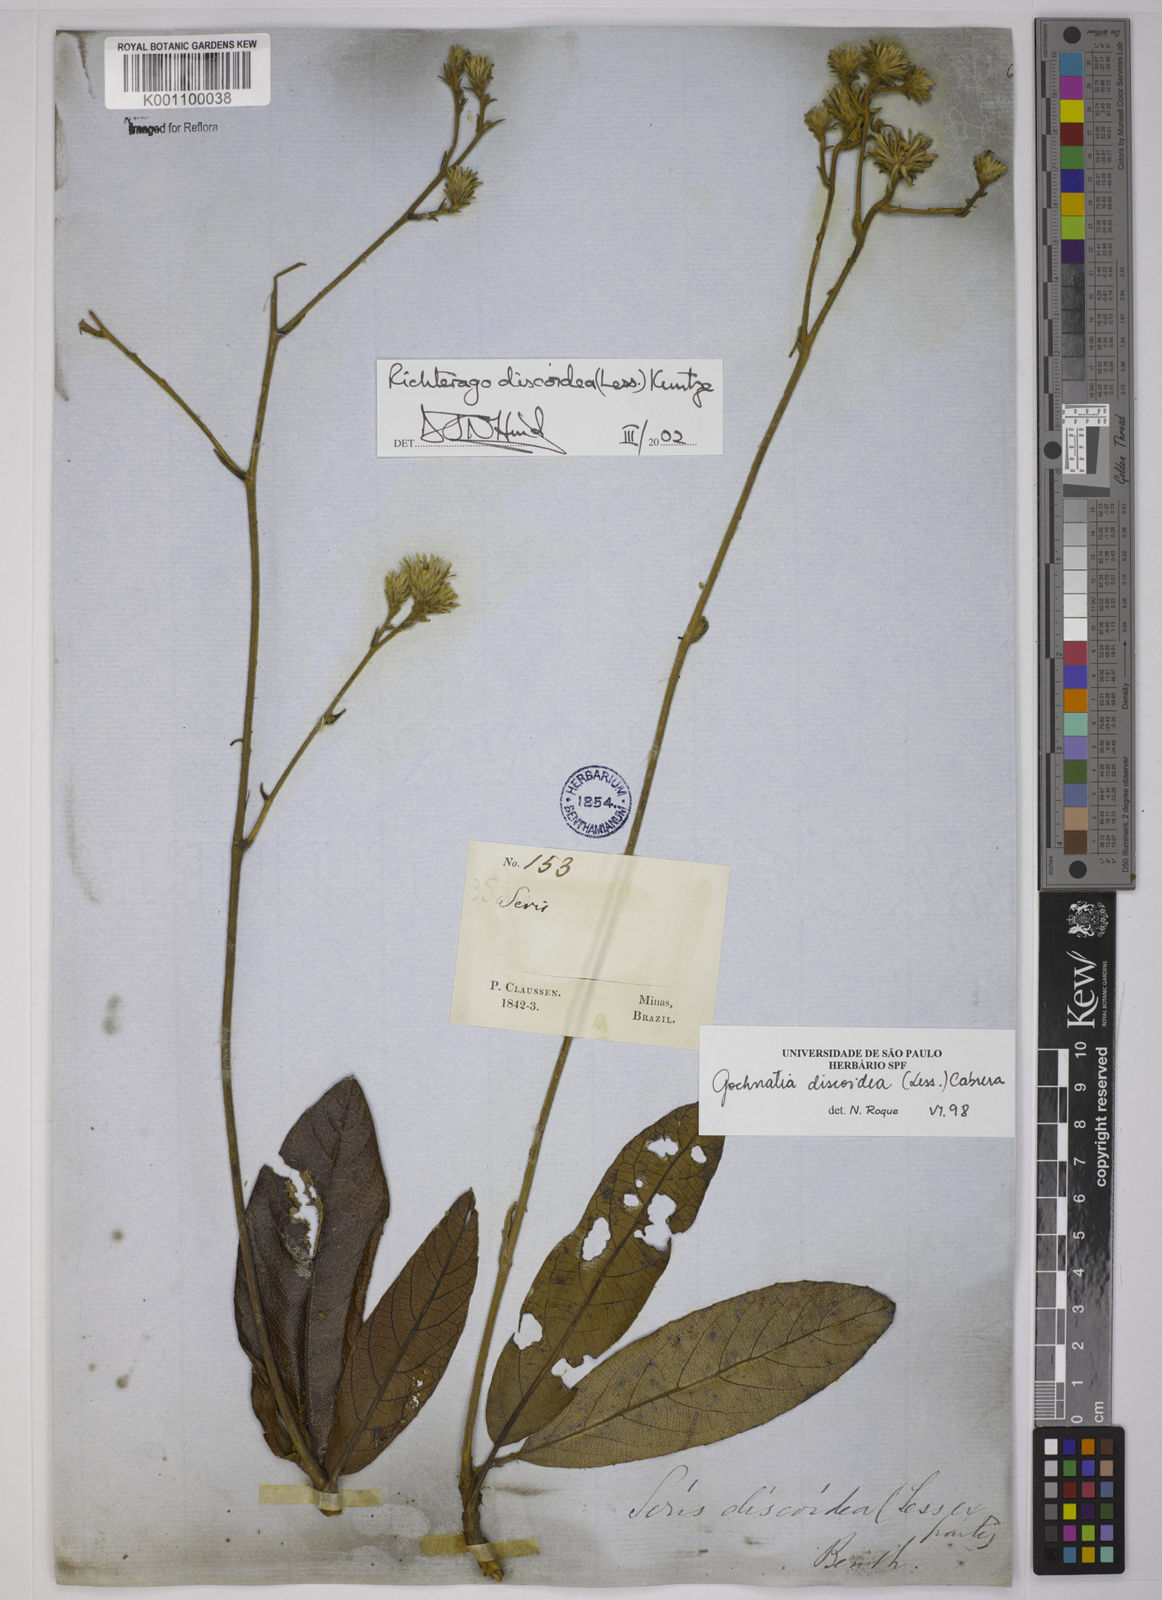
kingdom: Plantae
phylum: Tracheophyta
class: Magnoliopsida
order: Asterales
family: Asteraceae
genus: Richterago
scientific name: Richterago discoidea
